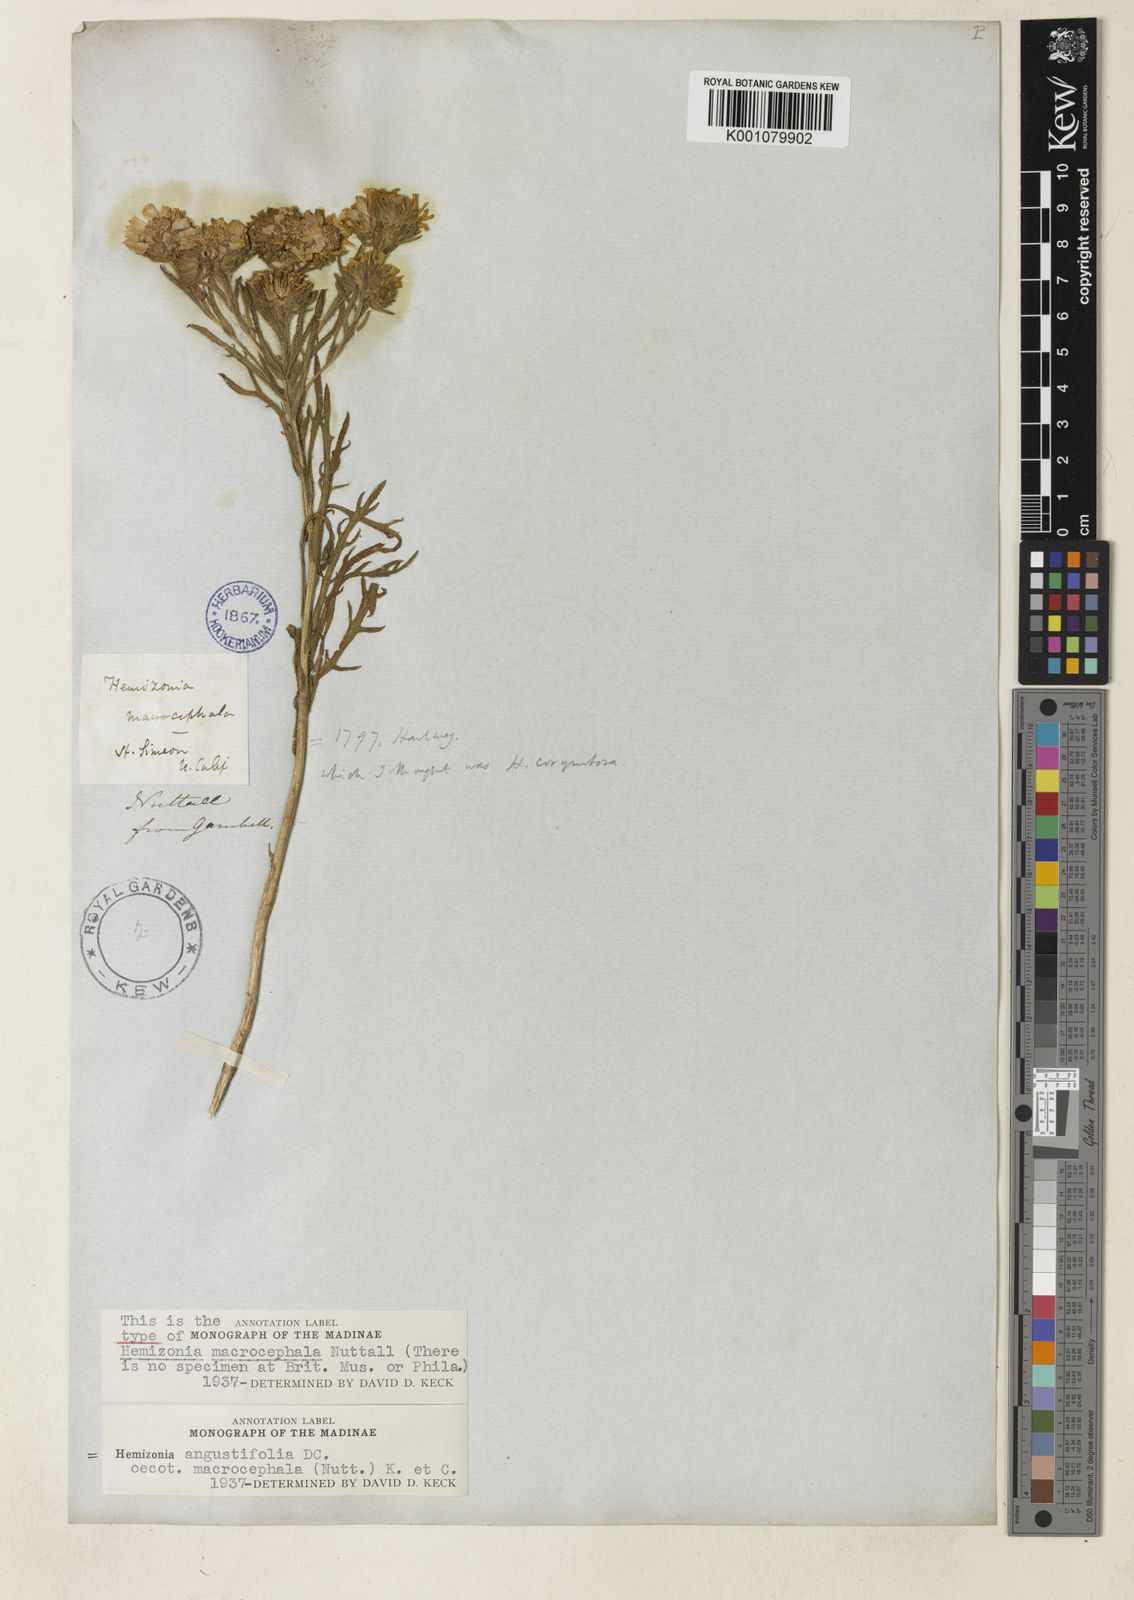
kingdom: Plantae
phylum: Tracheophyta
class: Magnoliopsida
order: Asterales
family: Asteraceae
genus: Deinandra
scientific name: Deinandra corymbosa
